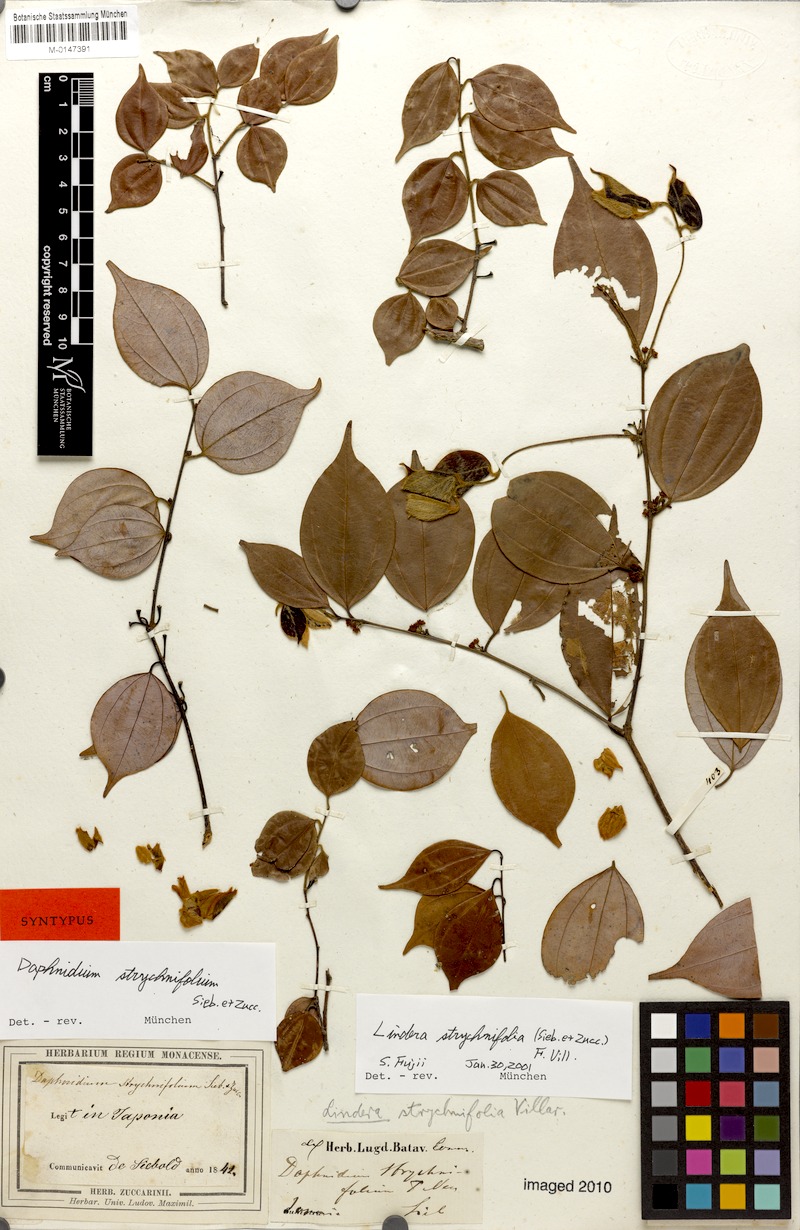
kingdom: Plantae
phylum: Tracheophyta
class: Magnoliopsida
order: Laurales
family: Lauraceae
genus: Lindera
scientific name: Lindera aggregata
